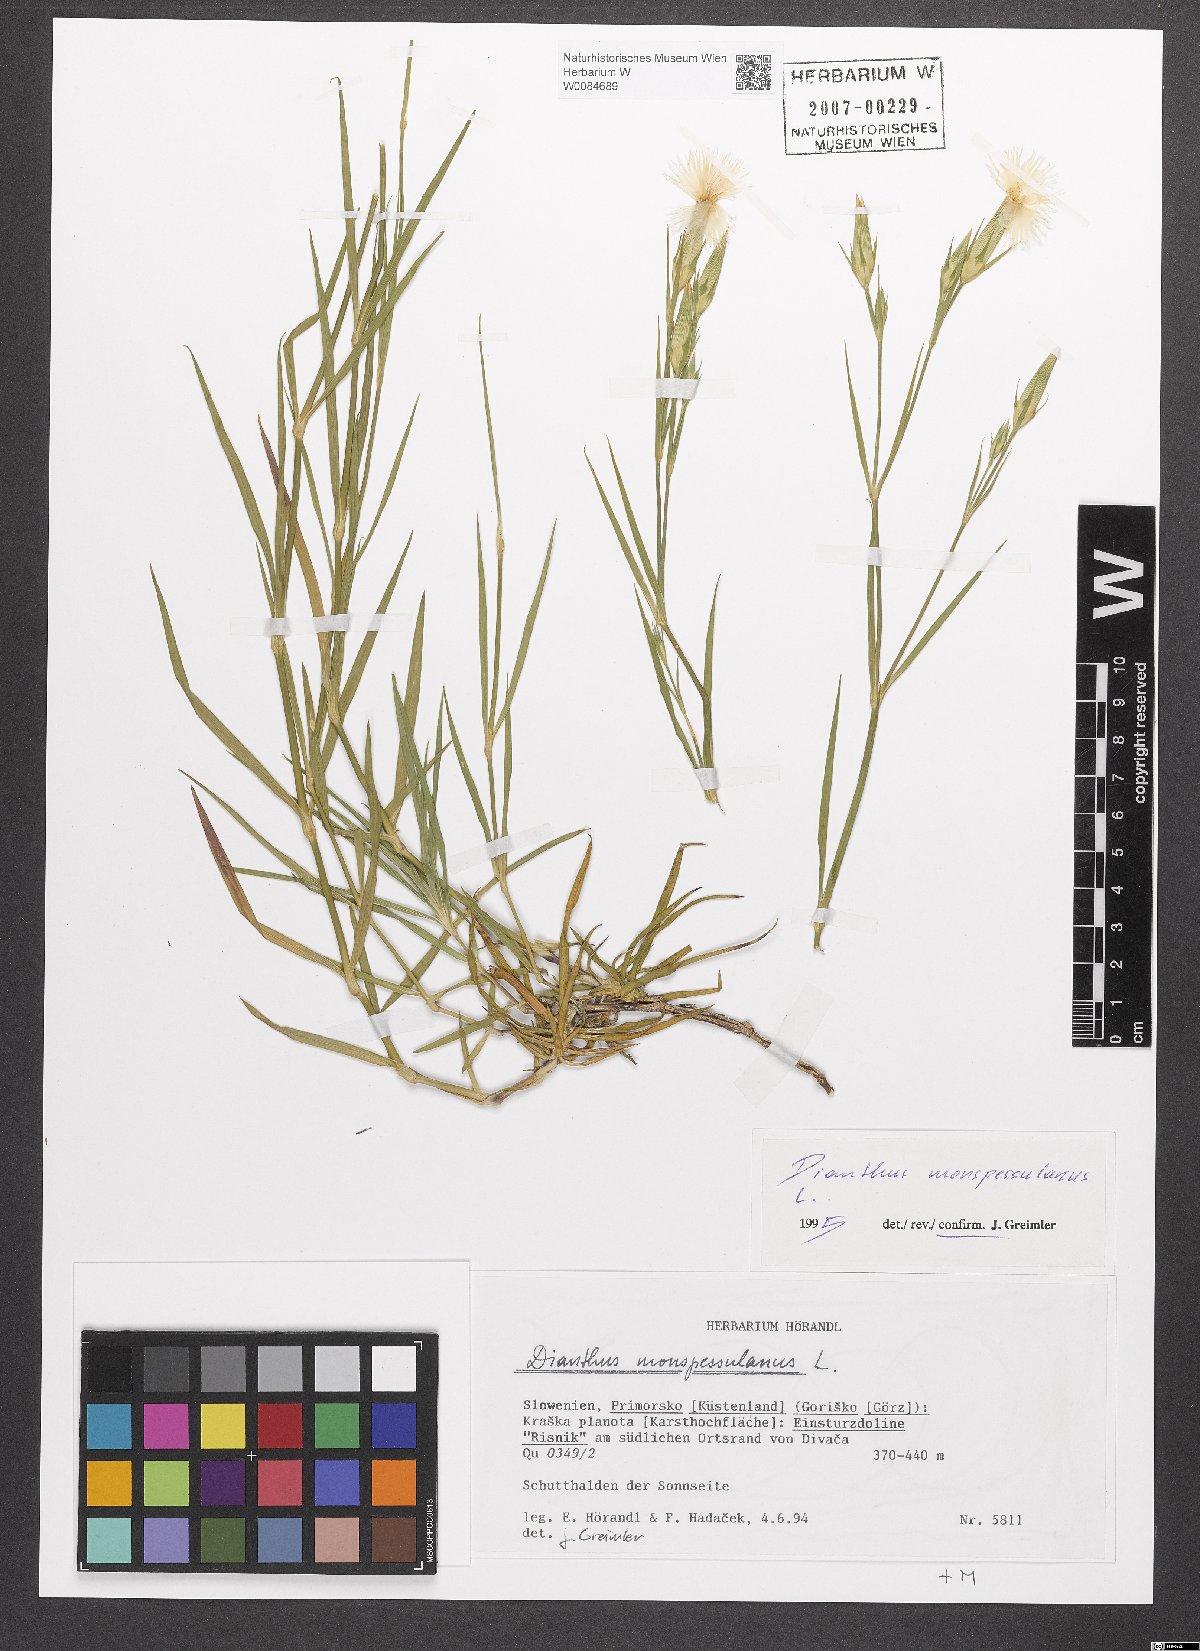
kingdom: Plantae
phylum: Tracheophyta
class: Magnoliopsida
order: Caryophyllales
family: Caryophyllaceae
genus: Dianthus
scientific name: Dianthus hyssopifolius
